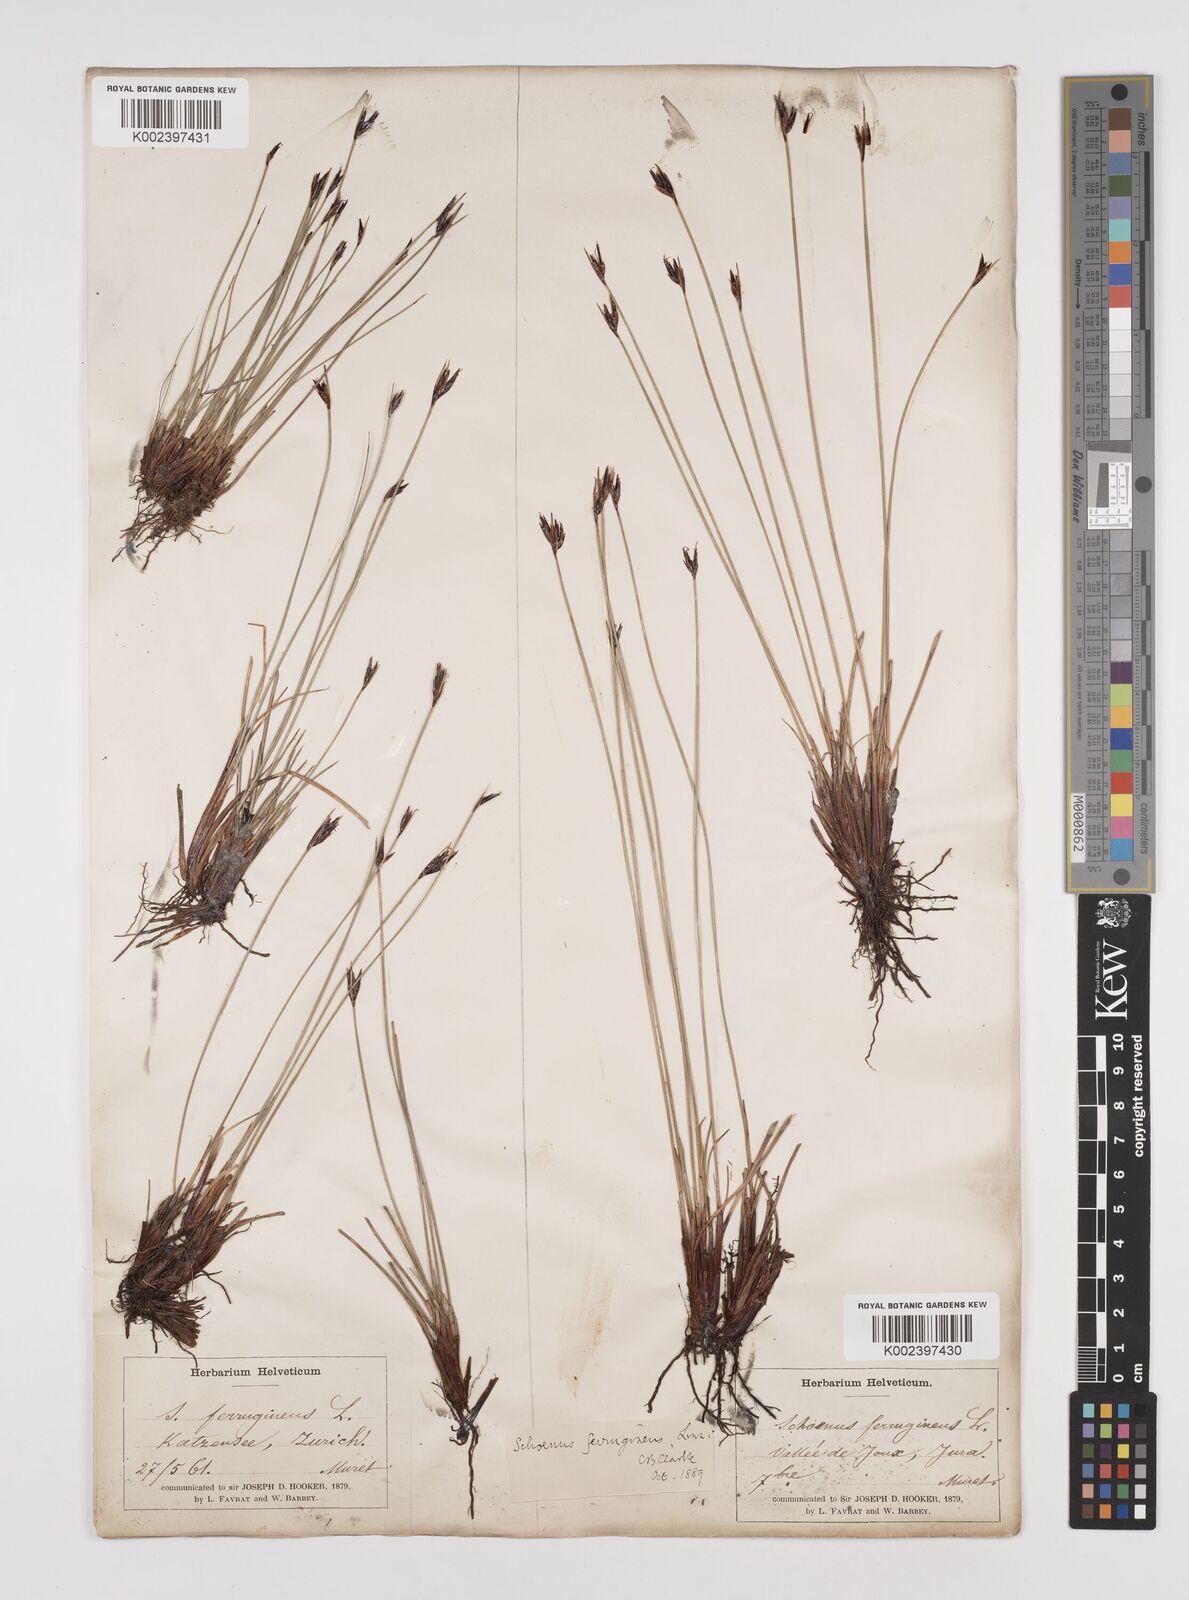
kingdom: Plantae
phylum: Tracheophyta
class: Liliopsida
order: Poales
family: Cyperaceae
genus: Schoenus
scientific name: Schoenus ferrugineus
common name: Brown bog-rush
